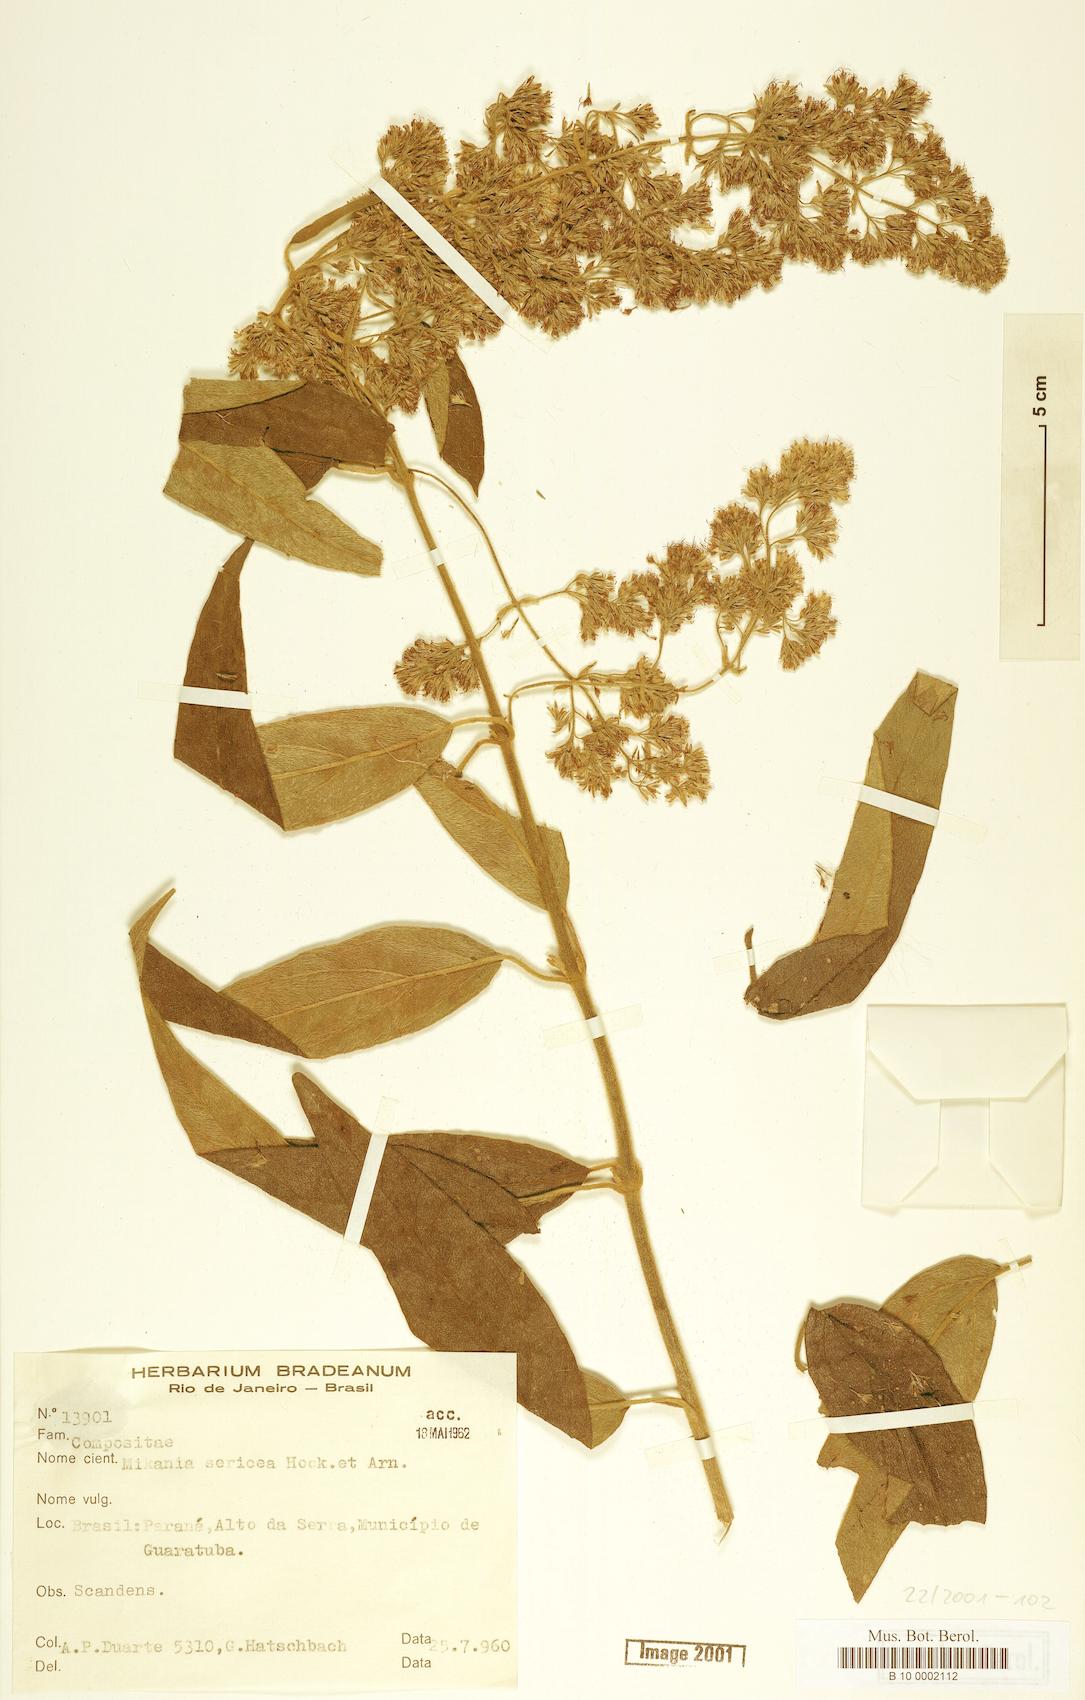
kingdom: Plantae
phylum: Tracheophyta
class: Magnoliopsida
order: Asterales
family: Asteraceae
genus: Mikania
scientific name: Mikania sericea
